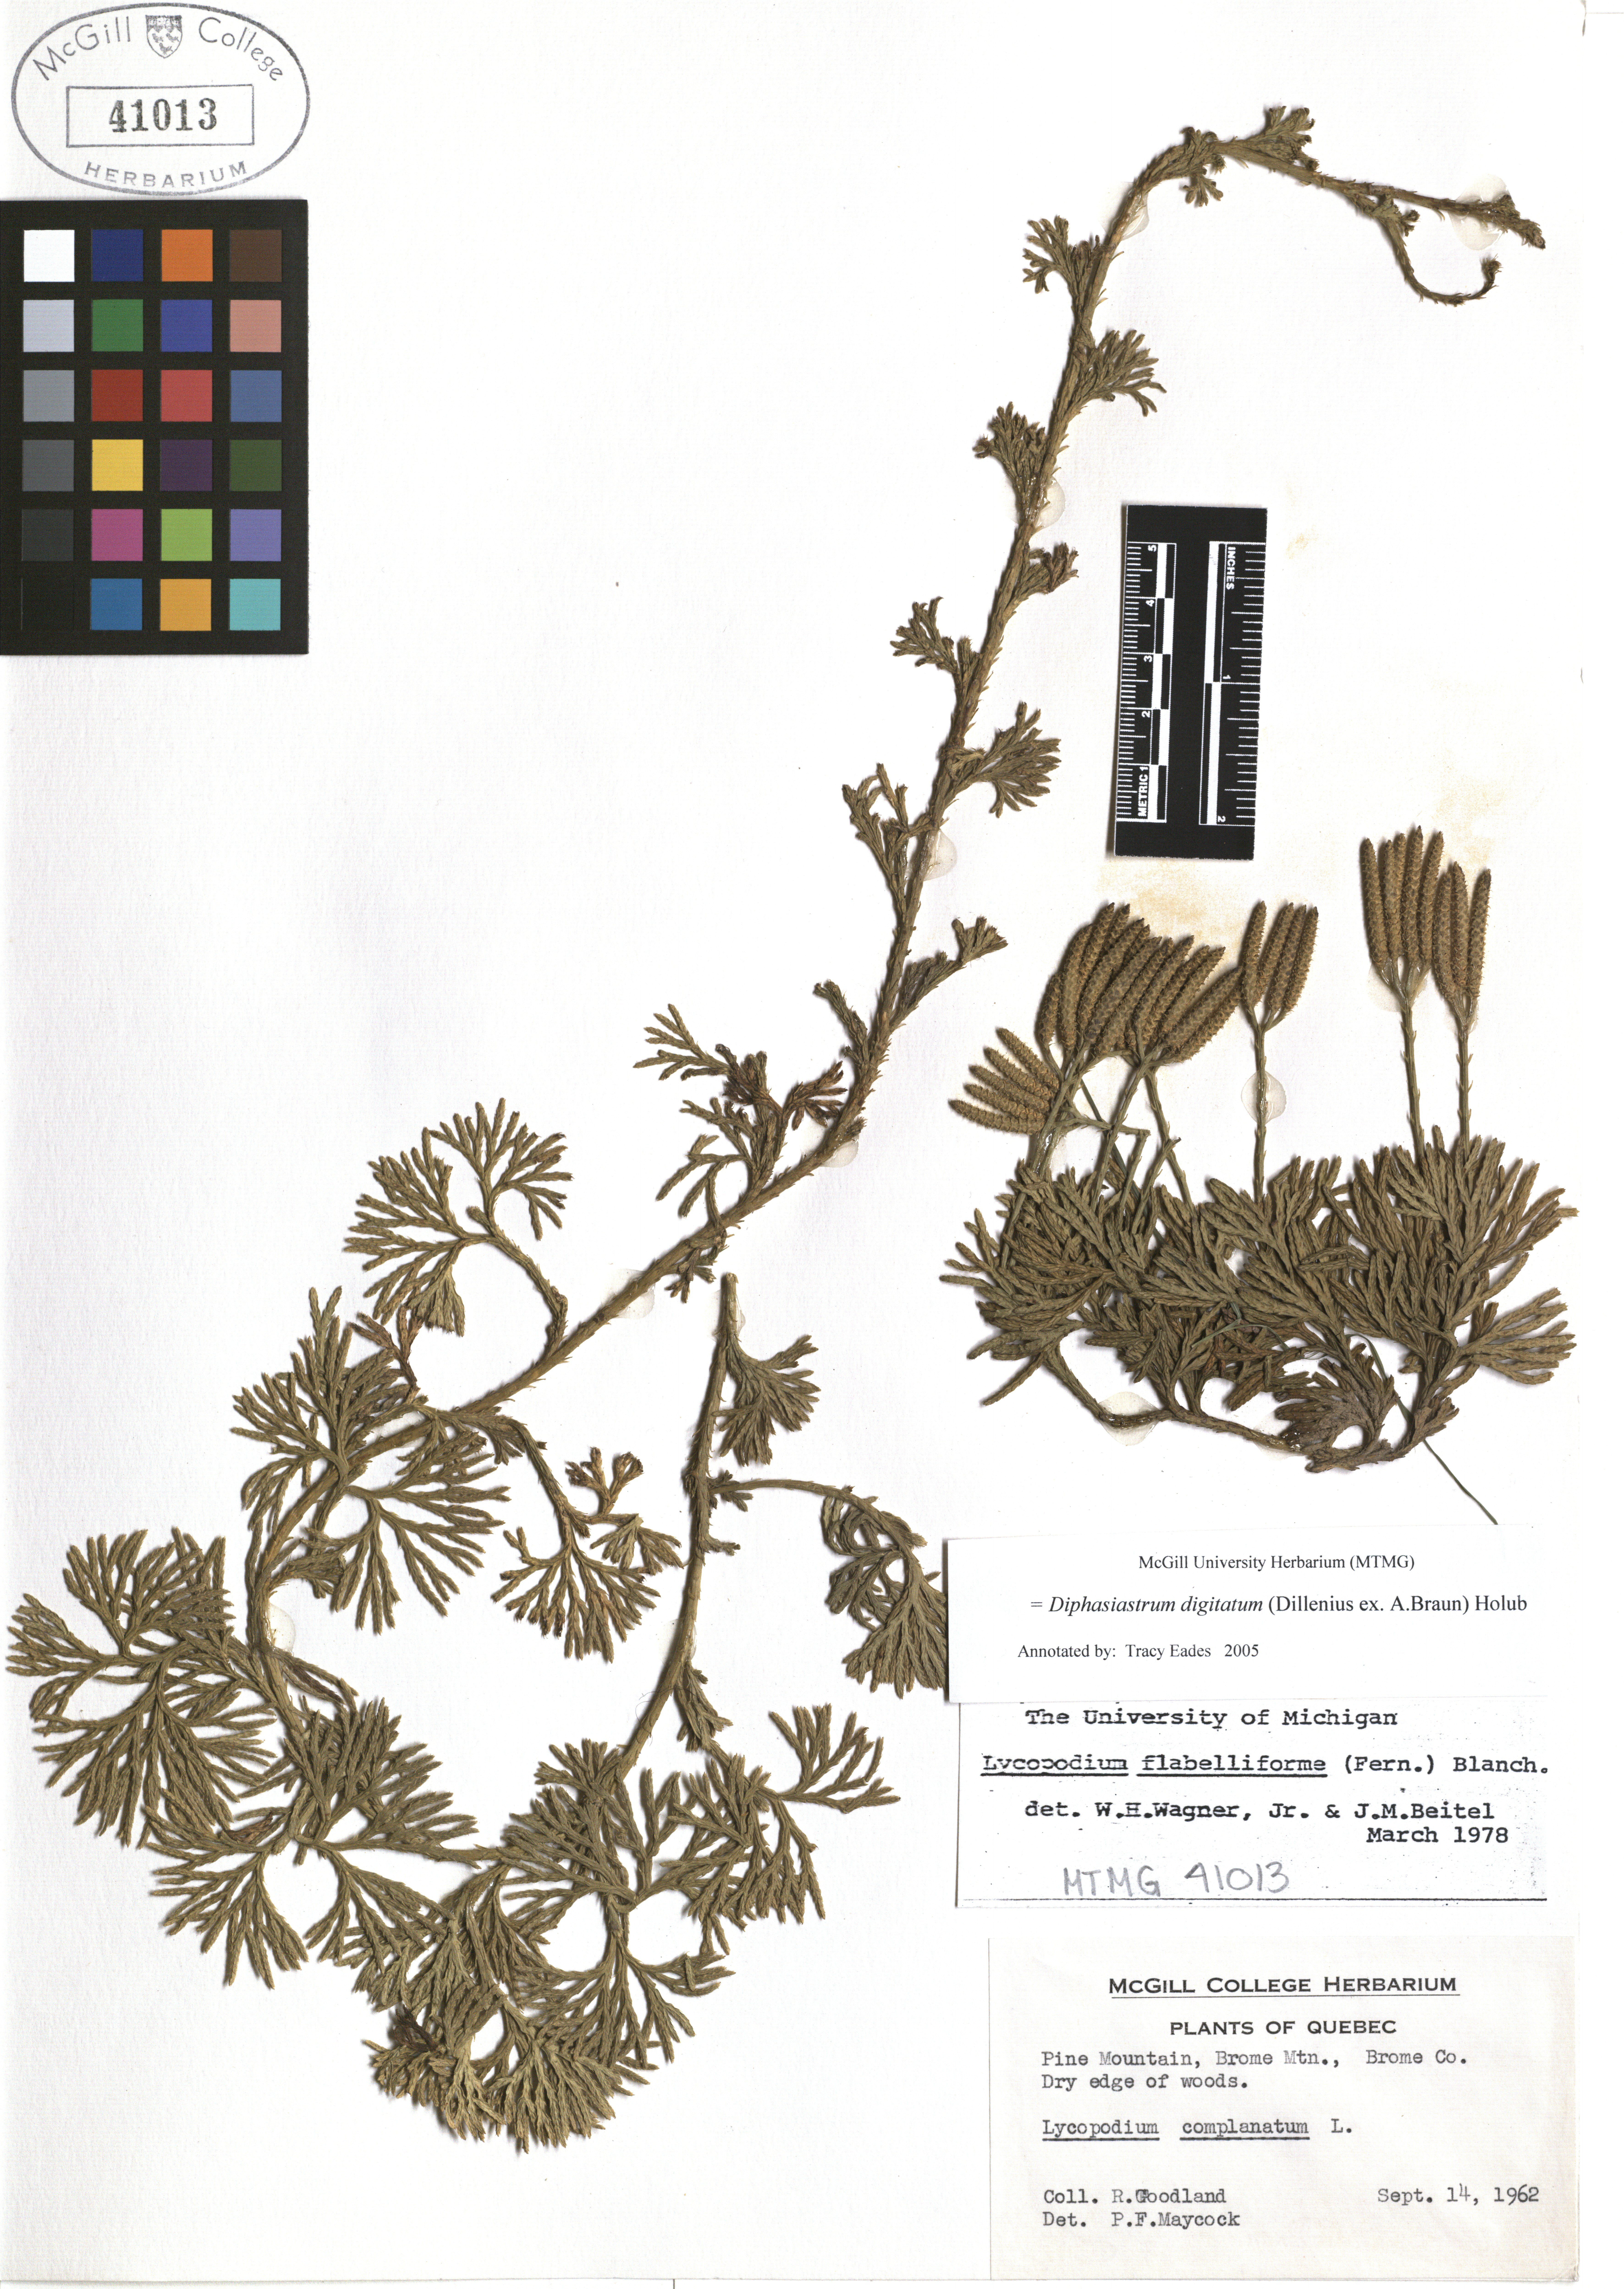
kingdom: Plantae
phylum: Tracheophyta
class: Lycopodiopsida
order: Lycopodiales
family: Lycopodiaceae
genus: Diphasiastrum
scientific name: Diphasiastrum digitatum
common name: Southern running-pine
